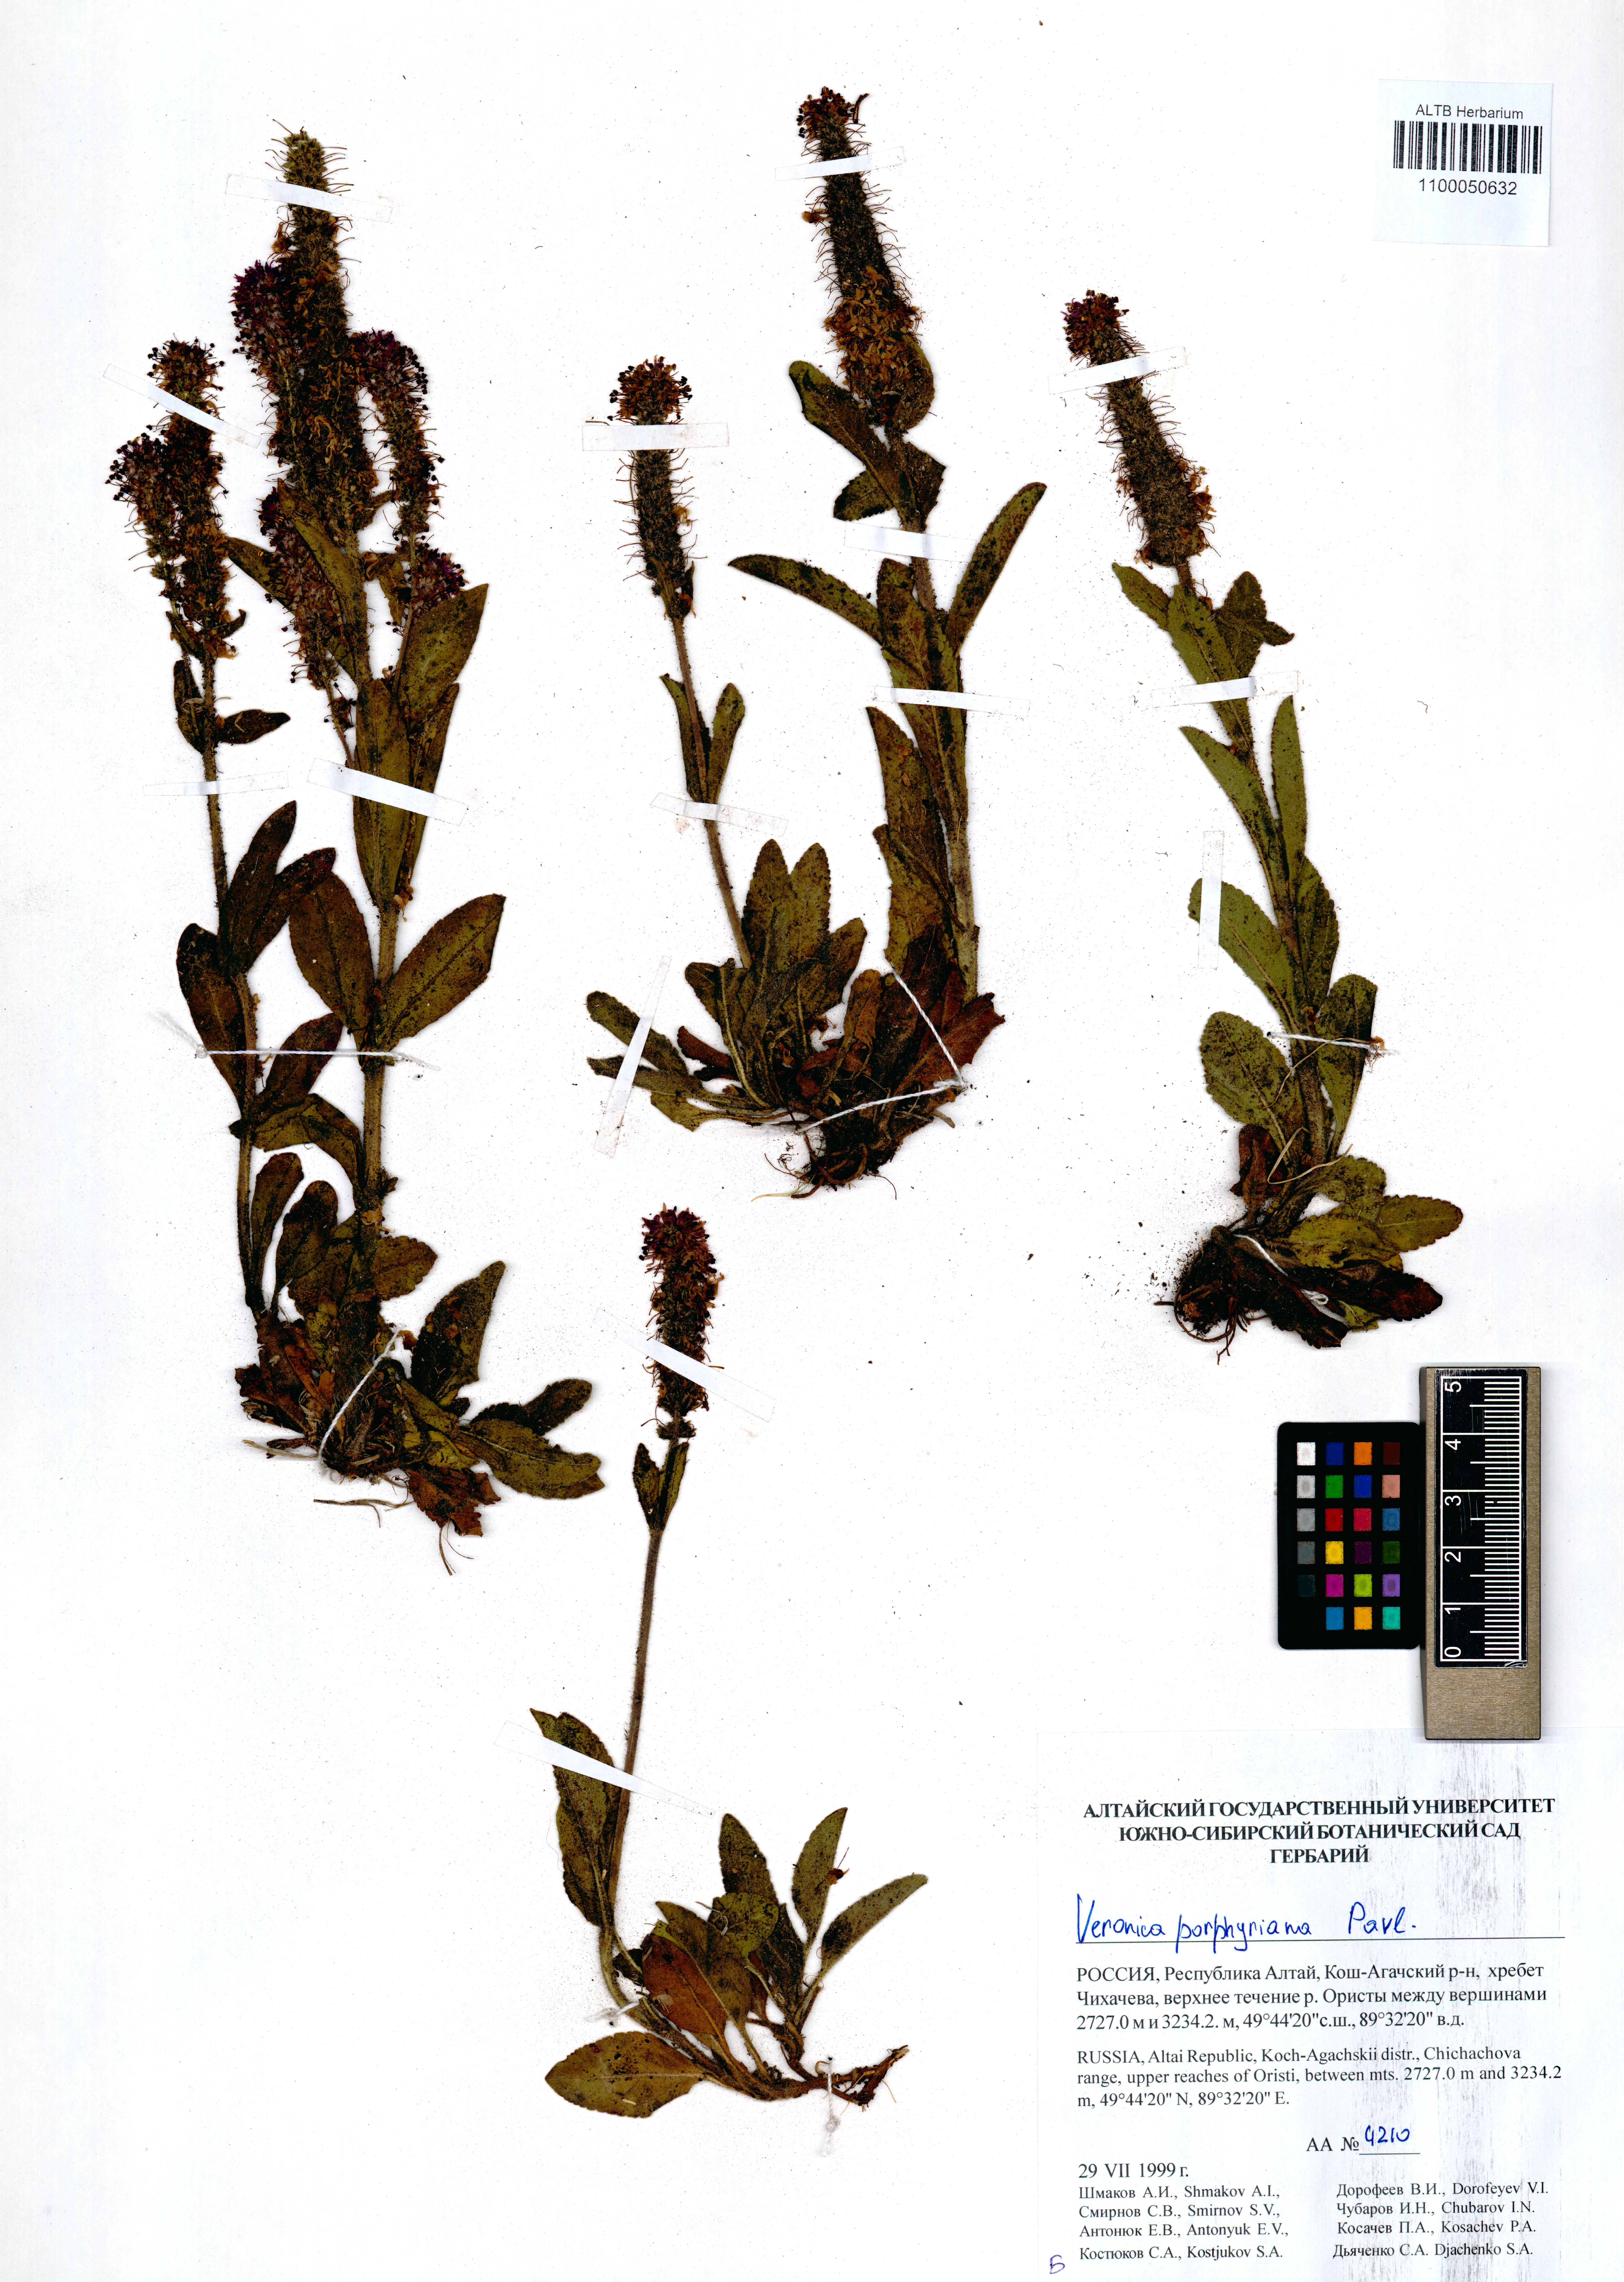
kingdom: Plantae
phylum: Tracheophyta
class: Magnoliopsida
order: Lamiales
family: Plantaginaceae
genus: Veronica
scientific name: Veronica porphyriana
